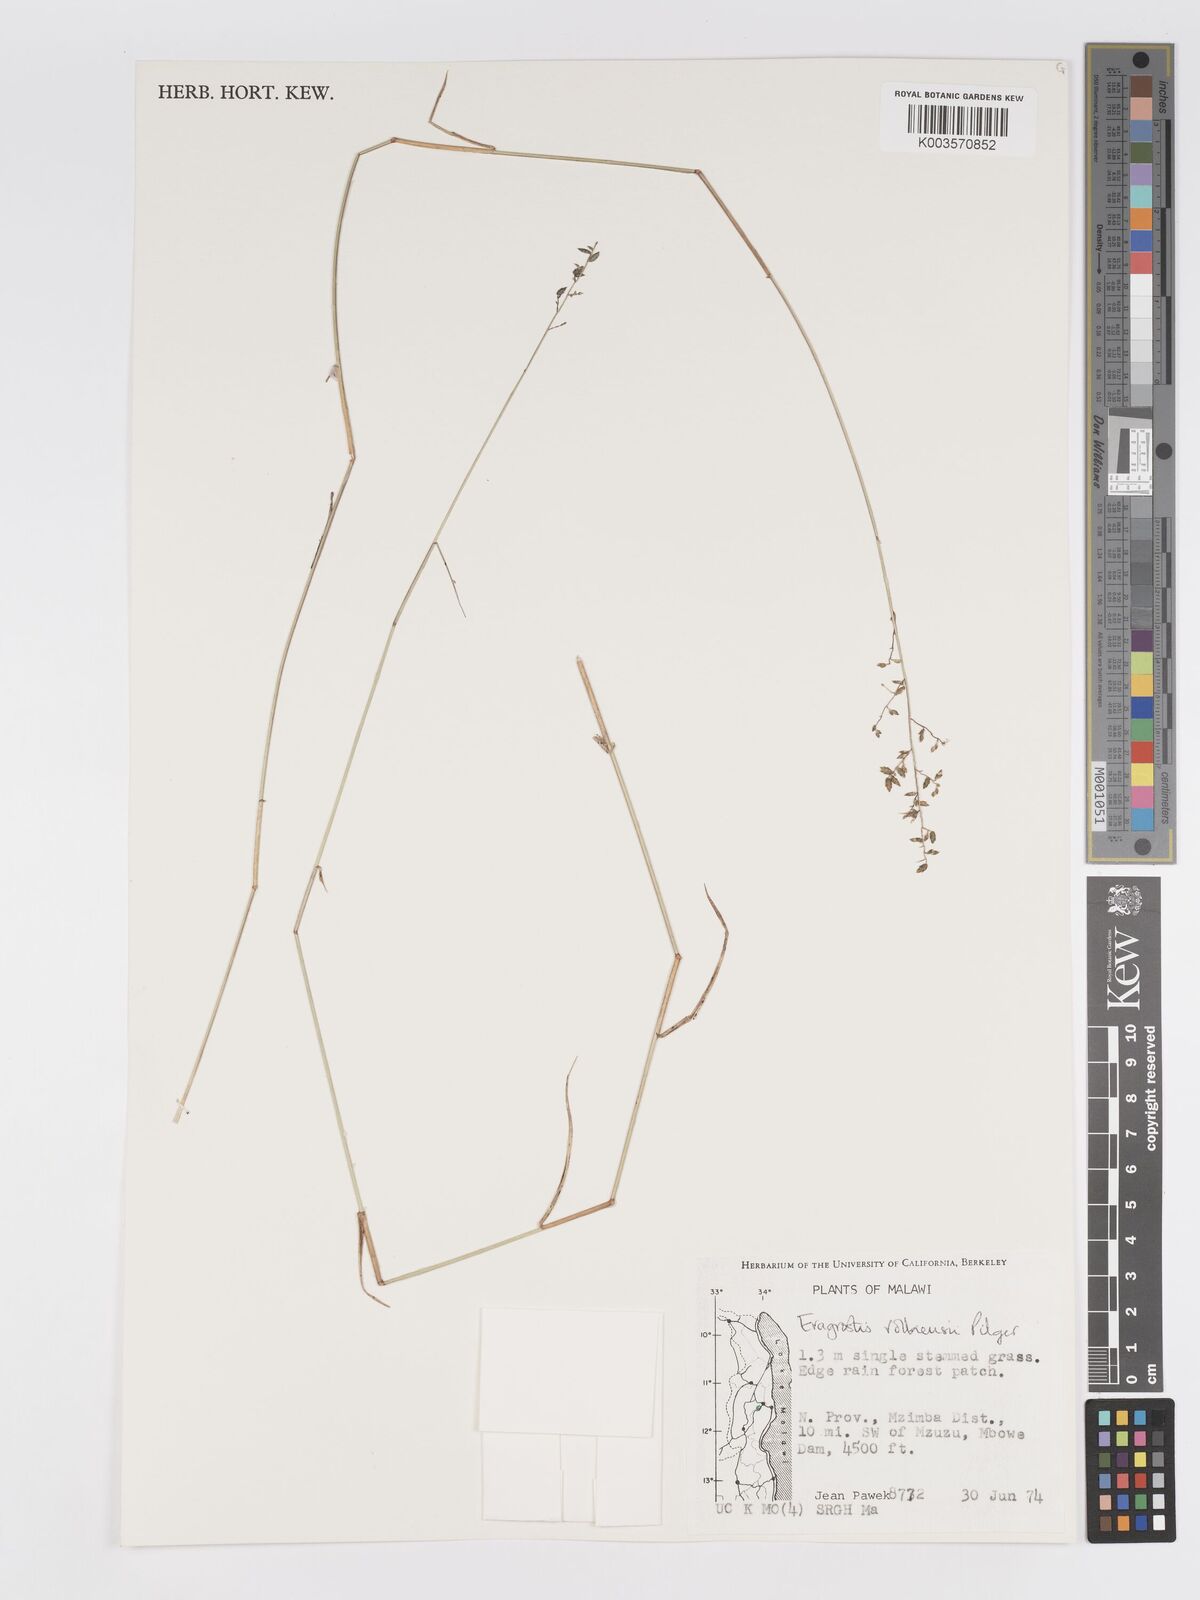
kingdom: Plantae
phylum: Tracheophyta
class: Liliopsida
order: Poales
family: Poaceae
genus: Eragrostis
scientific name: Eragrostis volkensii
